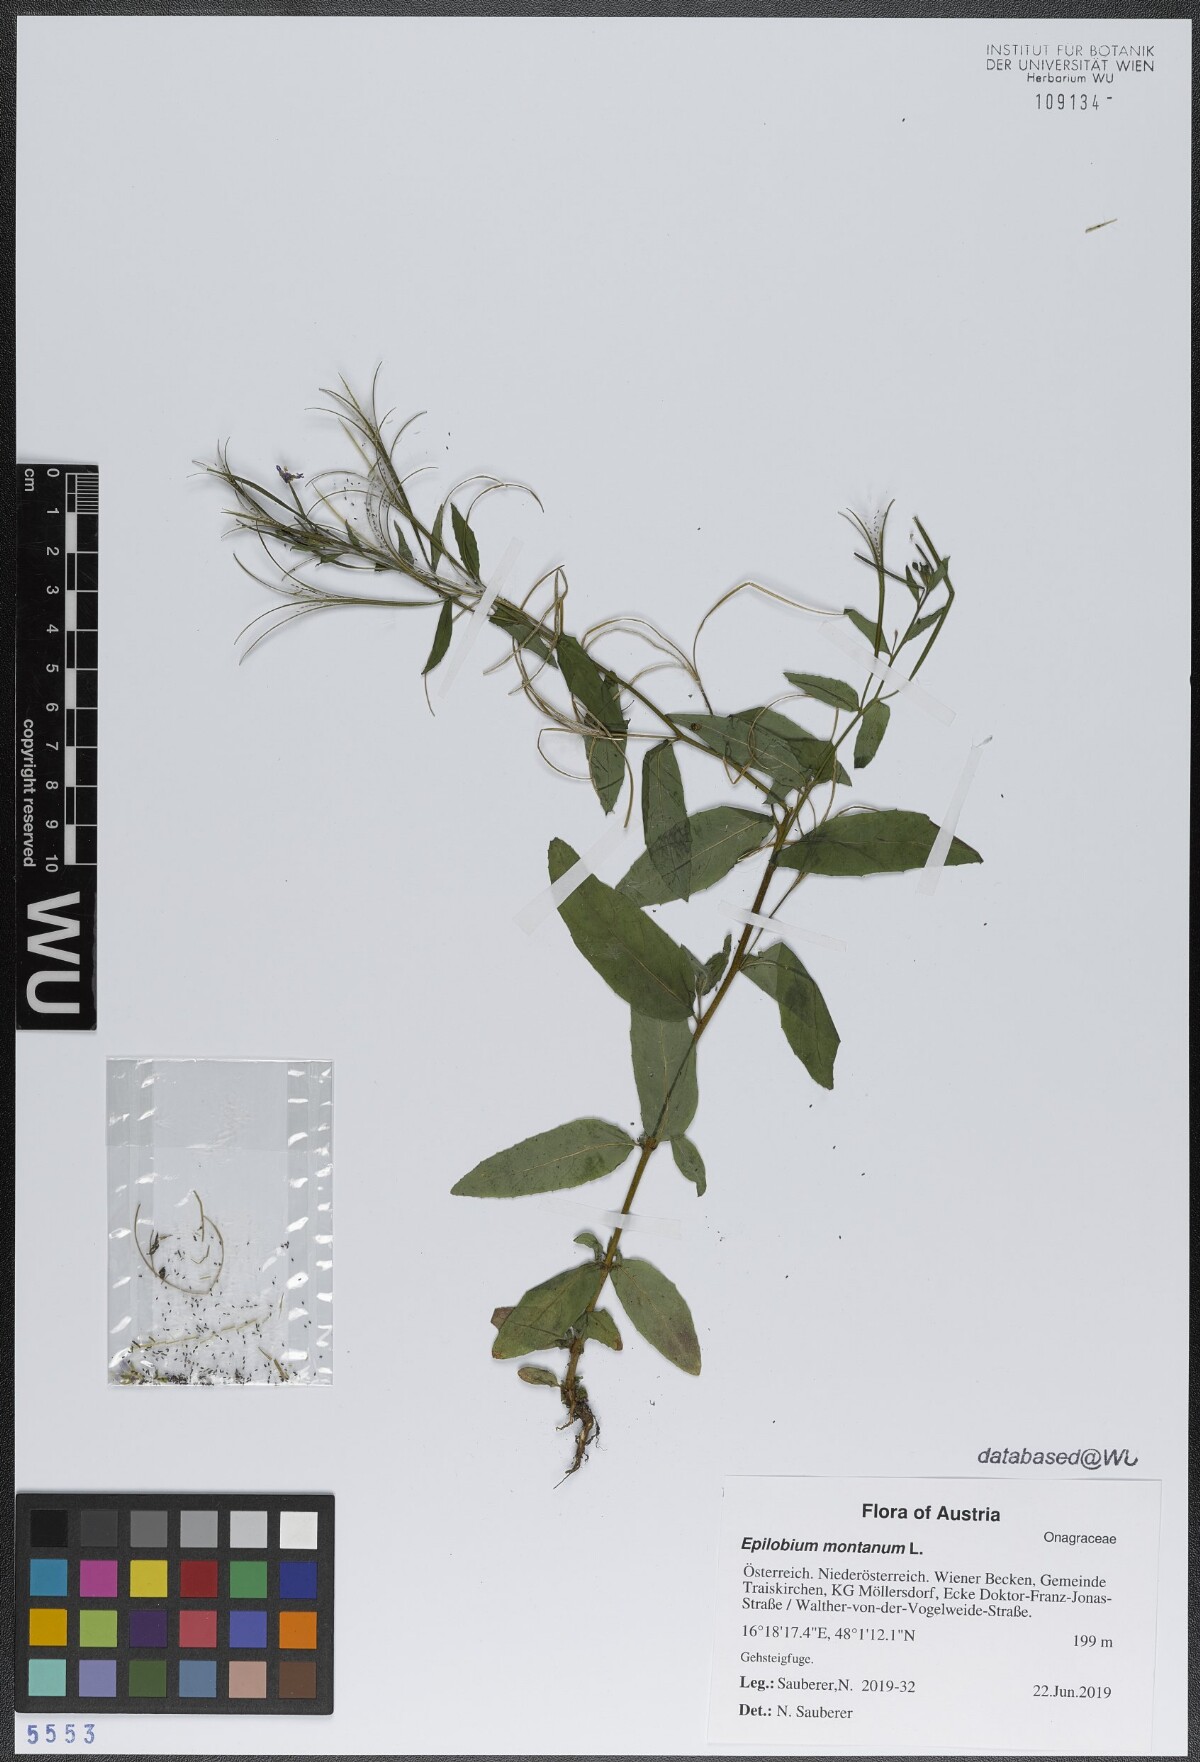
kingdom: Plantae
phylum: Tracheophyta
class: Magnoliopsida
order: Myrtales
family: Onagraceae
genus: Epilobium
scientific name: Epilobium montanum
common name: Broad-leaved willowherb
